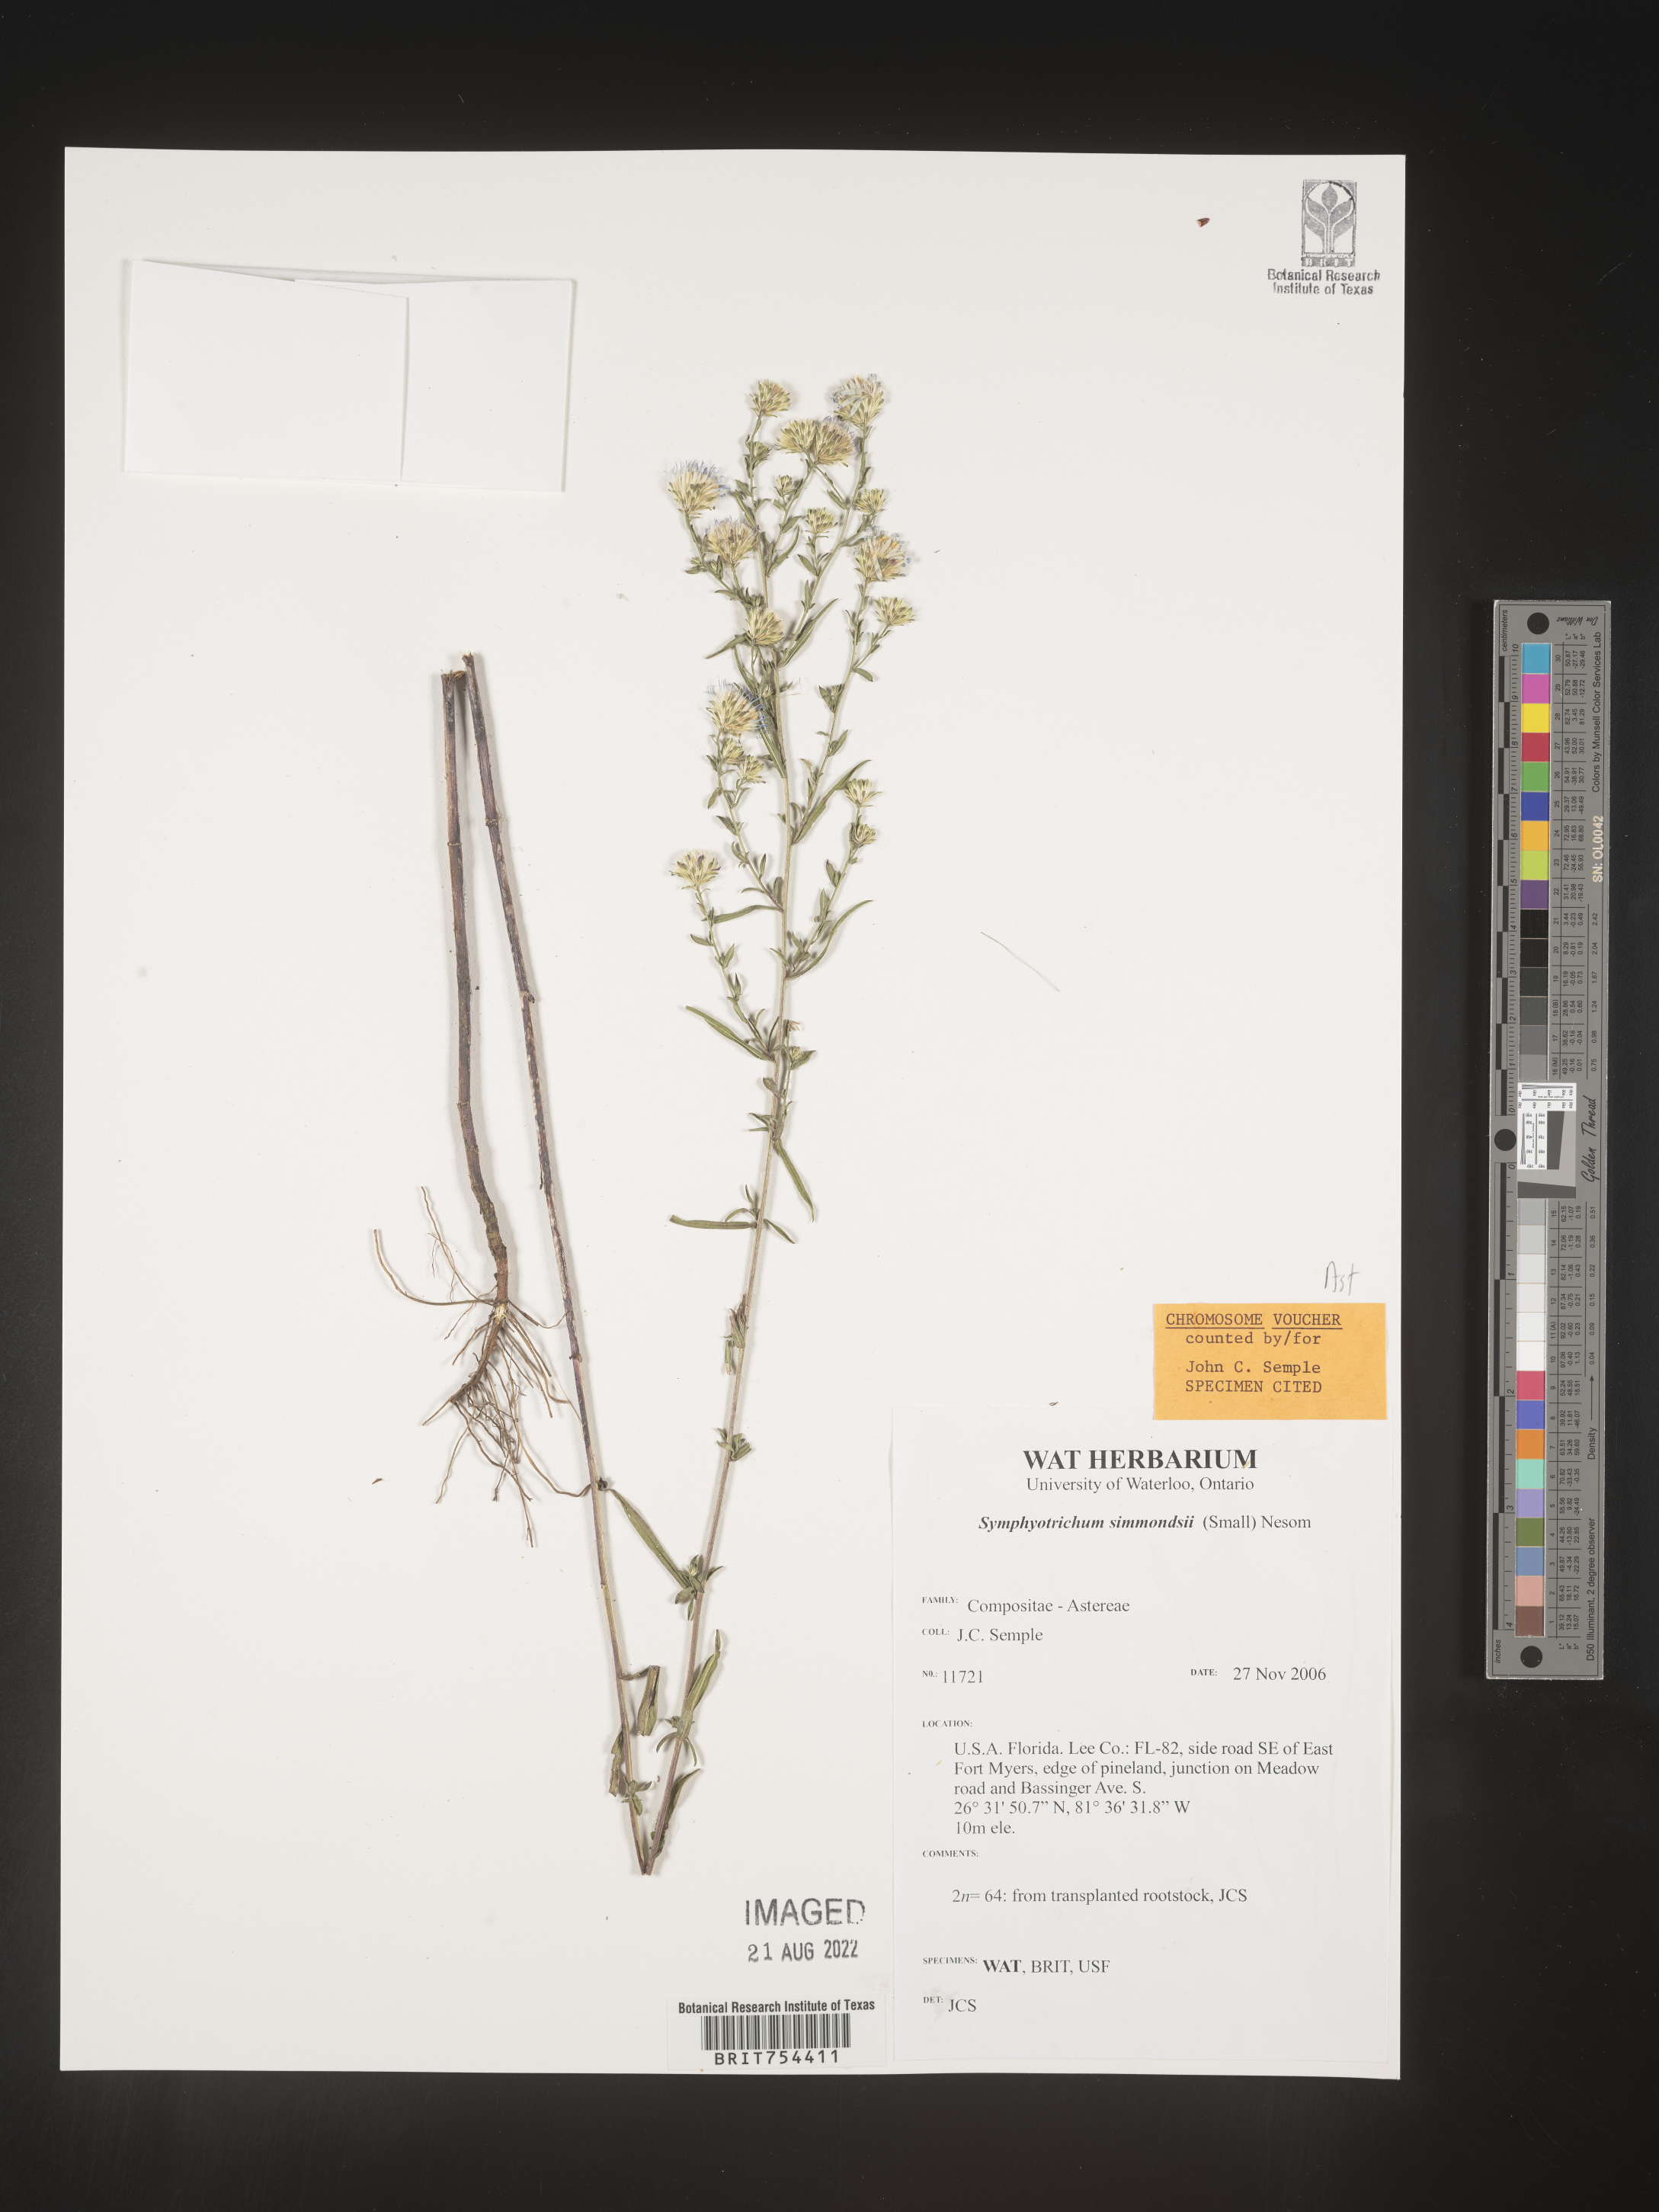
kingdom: Plantae
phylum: Tracheophyta
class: Magnoliopsida
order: Asterales
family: Asteraceae
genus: Symphyotrichum
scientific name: Symphyotrichum simmondsii
